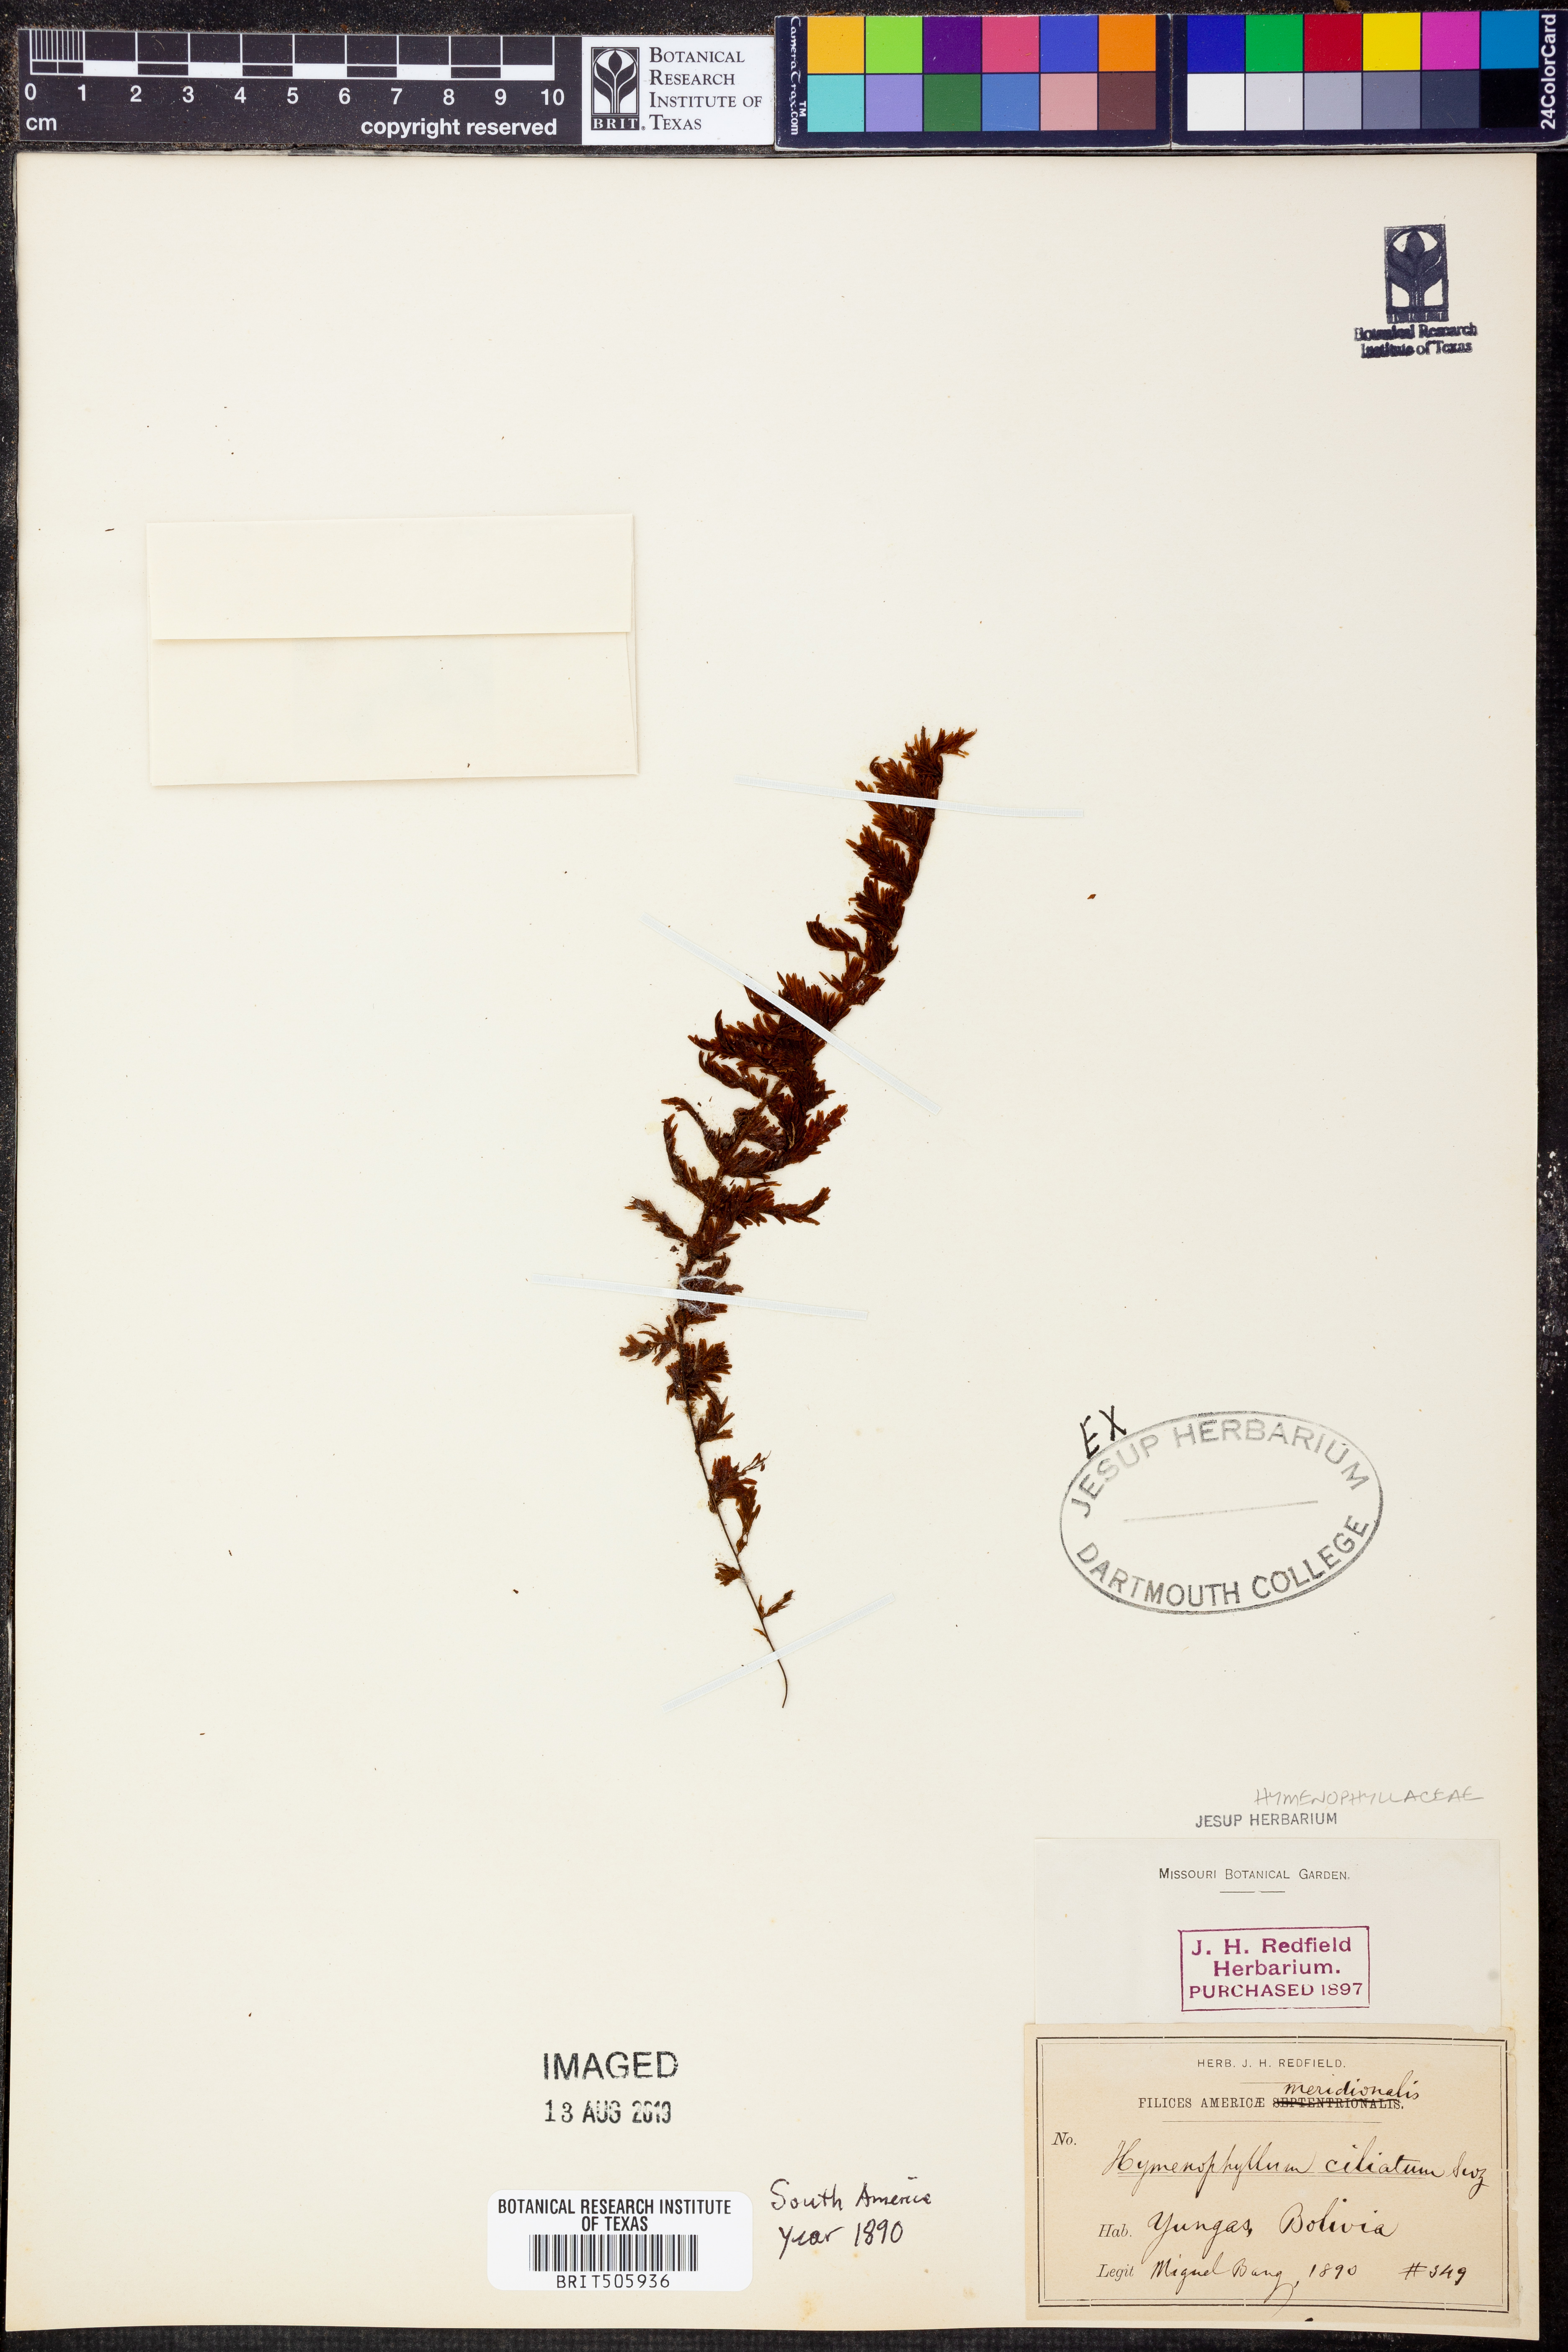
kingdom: Plantae
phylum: Tracheophyta
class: Polypodiopsida
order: Hymenophyllales
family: Hymenophyllaceae
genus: Hymenophyllum
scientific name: Hymenophyllum hirsutum
